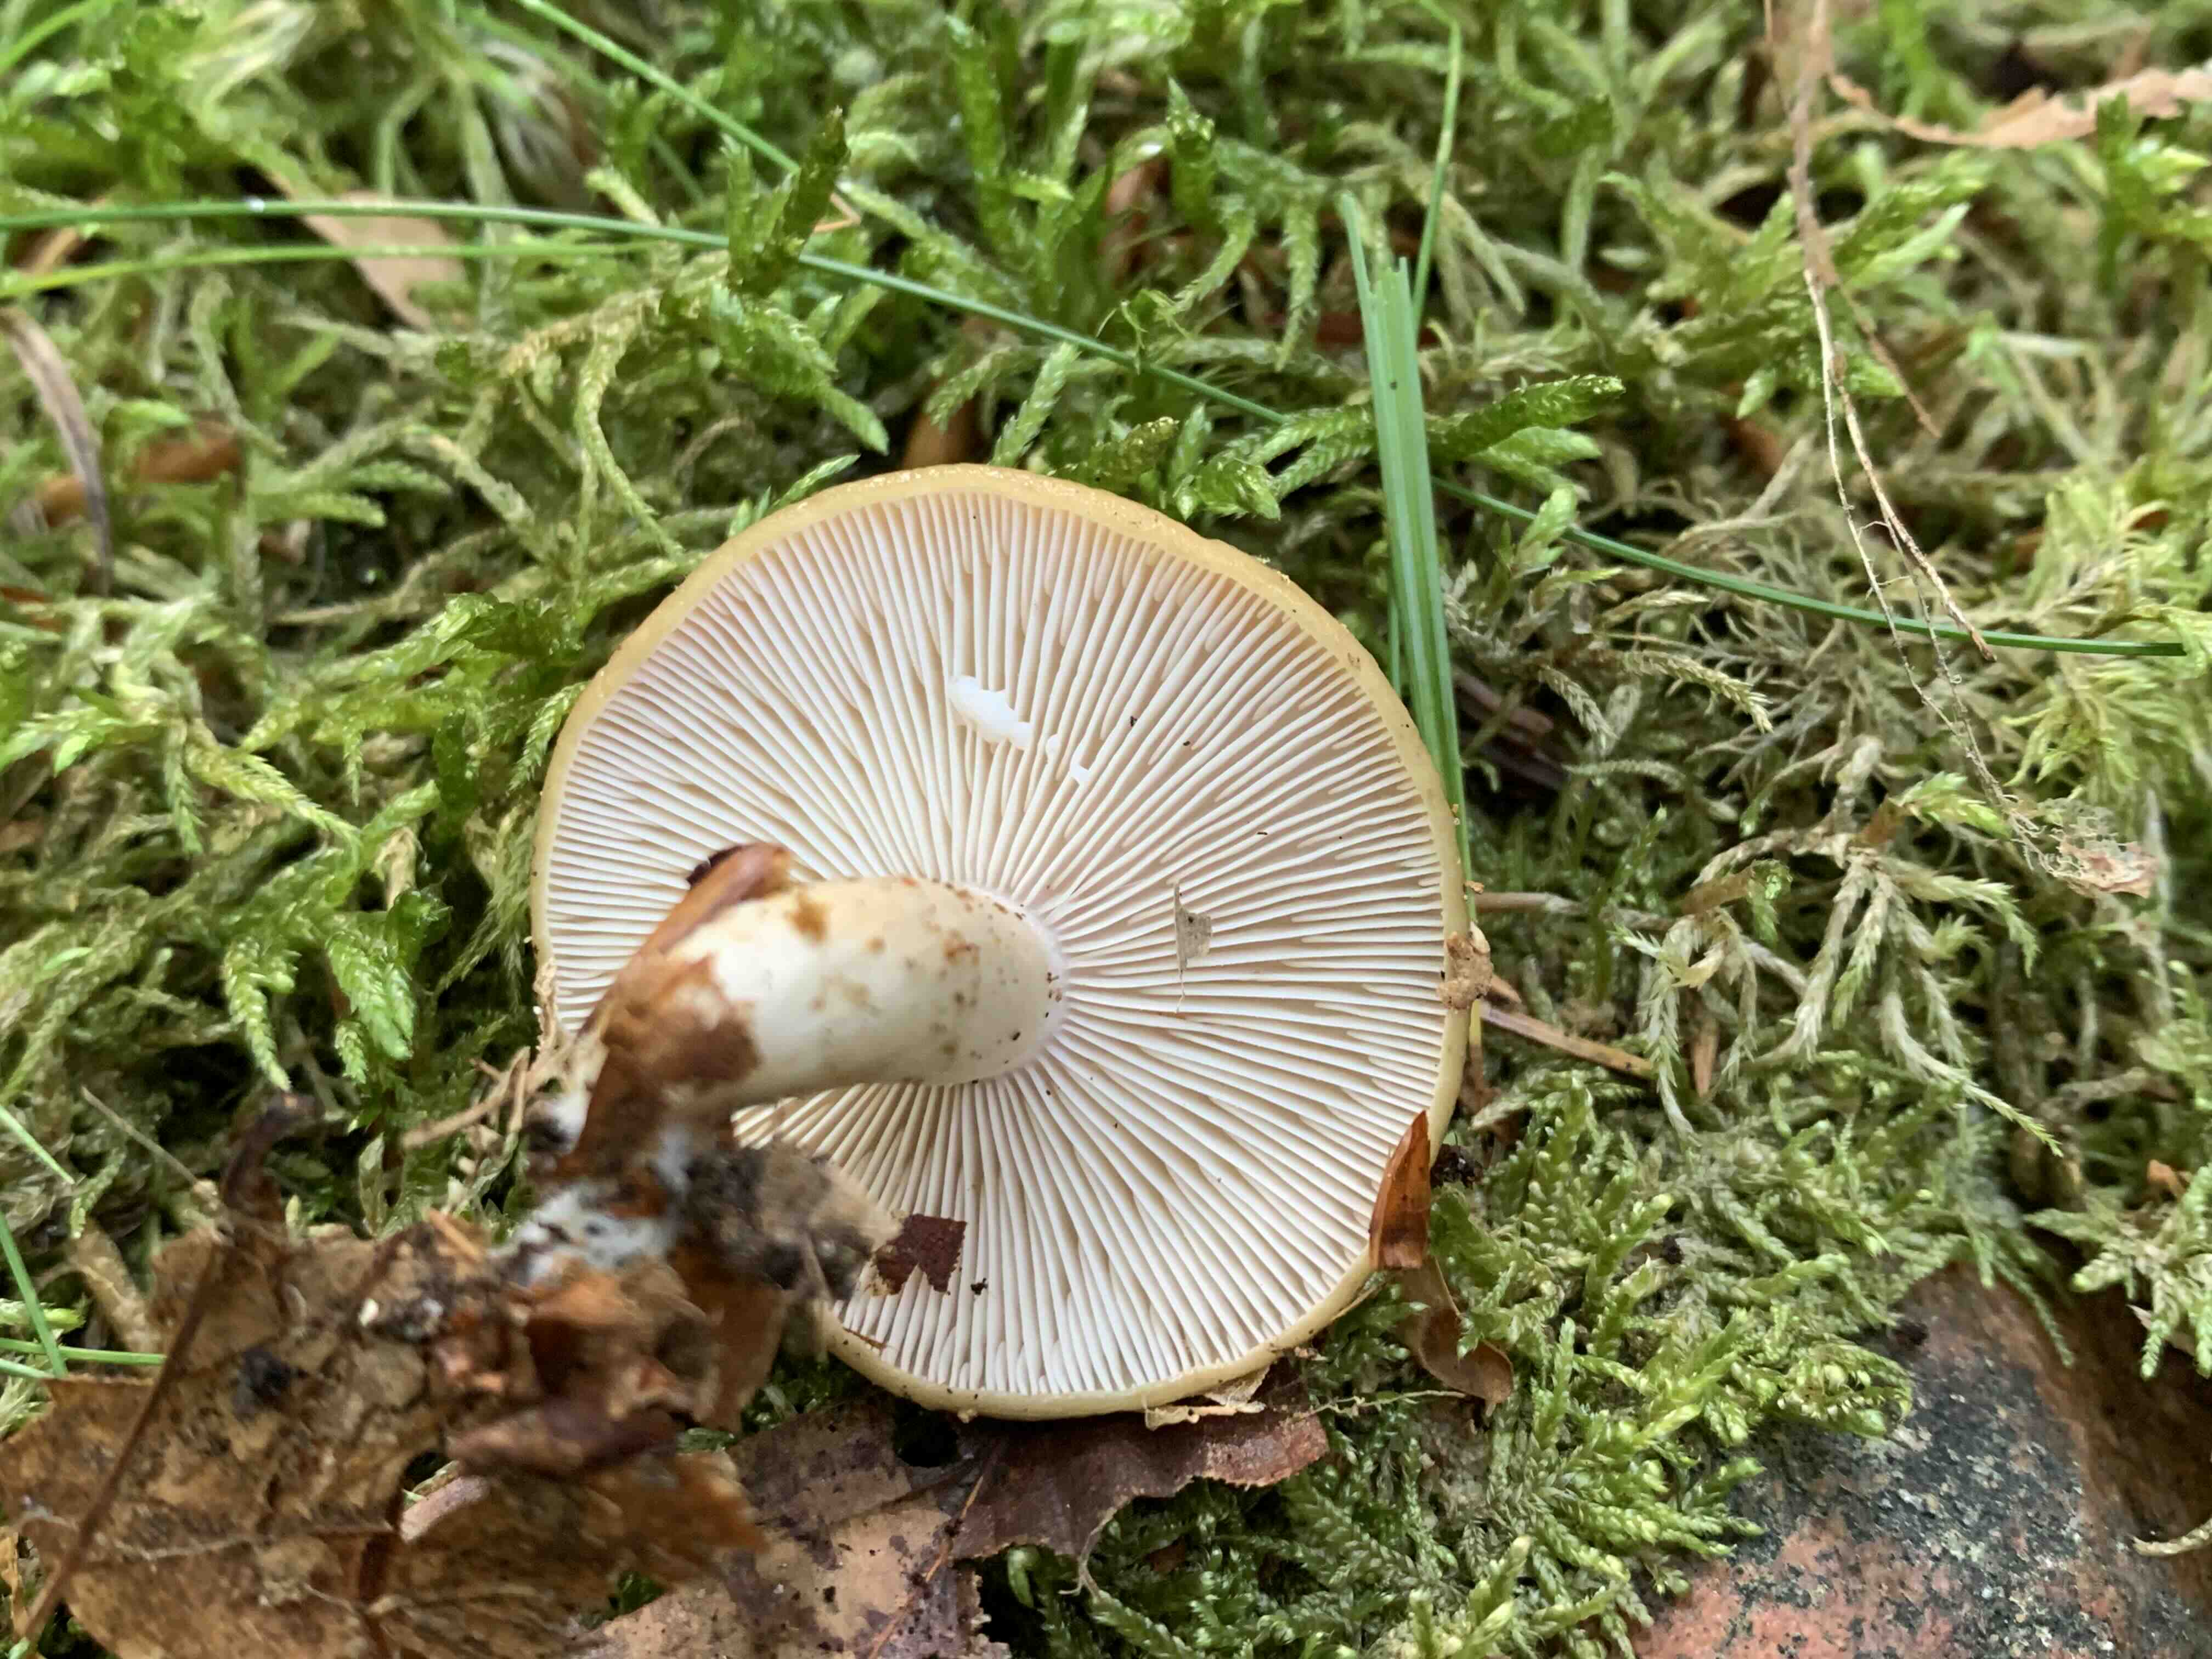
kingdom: Fungi
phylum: Basidiomycota
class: Agaricomycetes
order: Russulales
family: Russulaceae
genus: Lactarius
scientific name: Lactarius blennius
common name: dråbeplettet mælkehat
